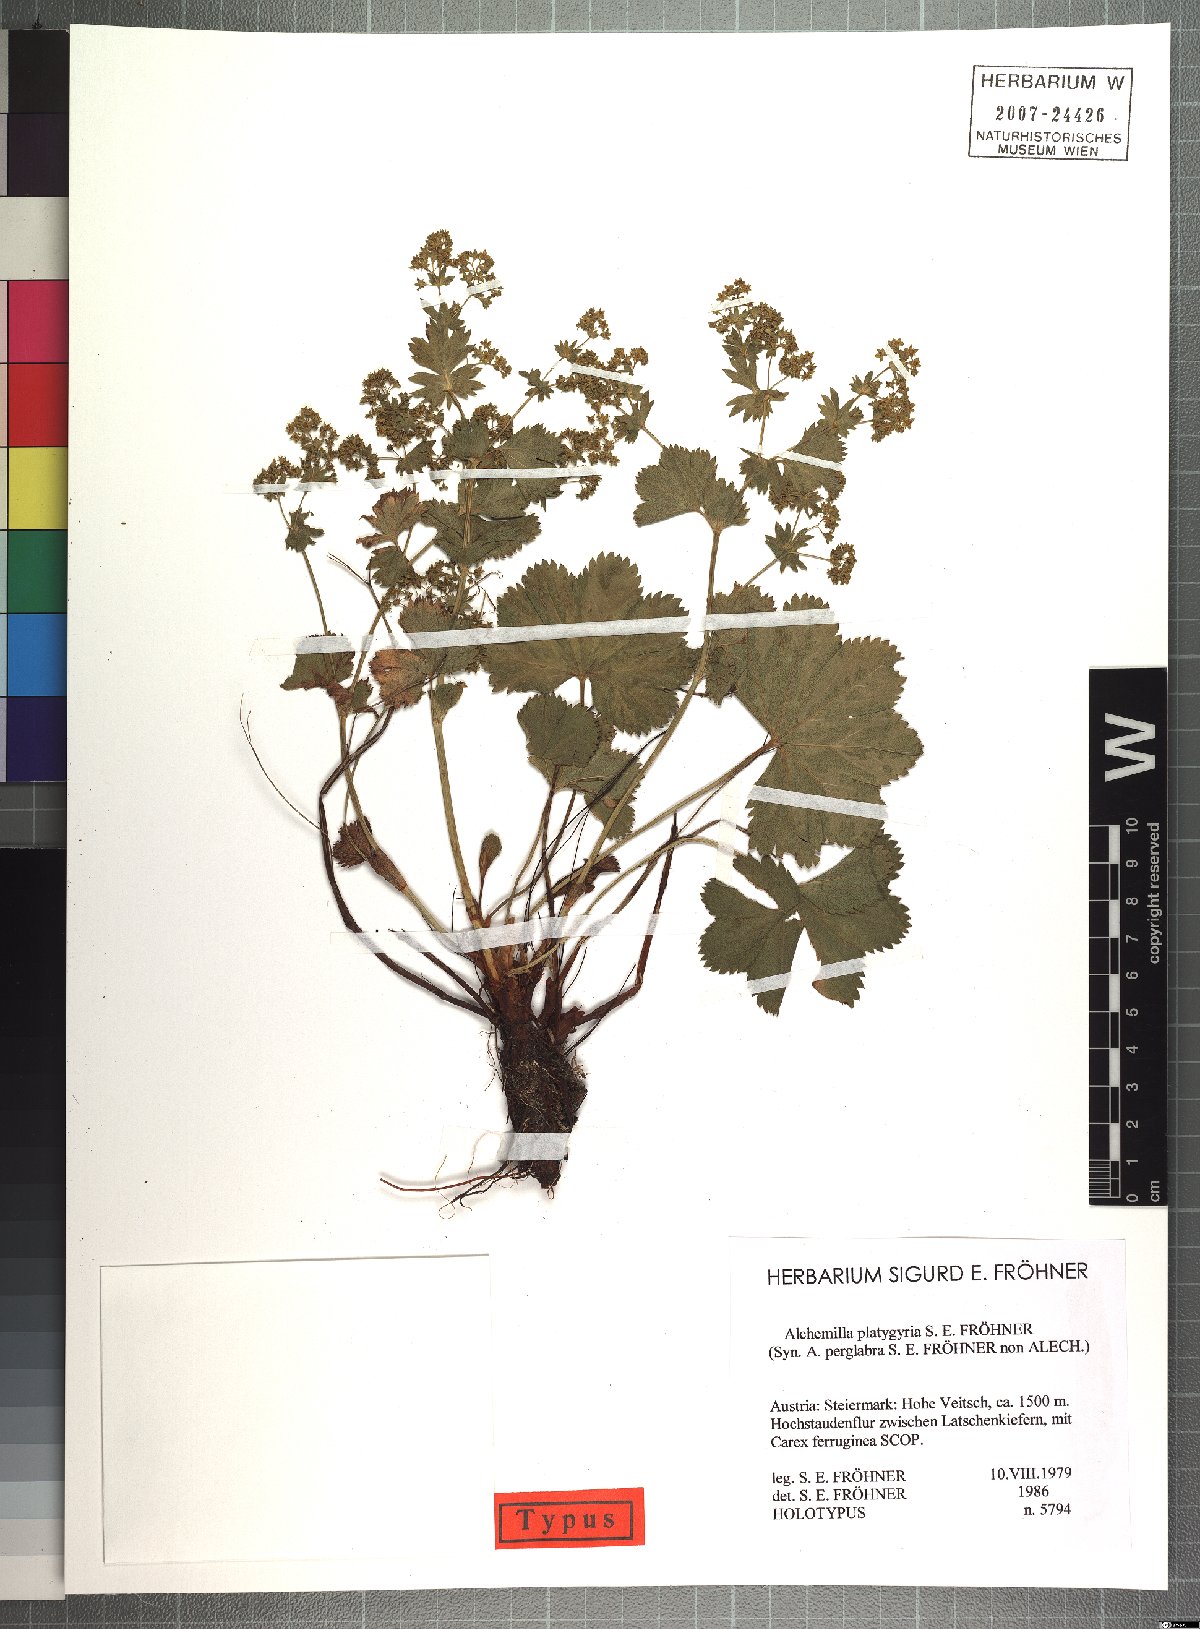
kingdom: Plantae
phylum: Tracheophyta
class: Magnoliopsida
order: Rosales
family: Rosaceae
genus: Alchemilla
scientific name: Alchemilla platygyria
